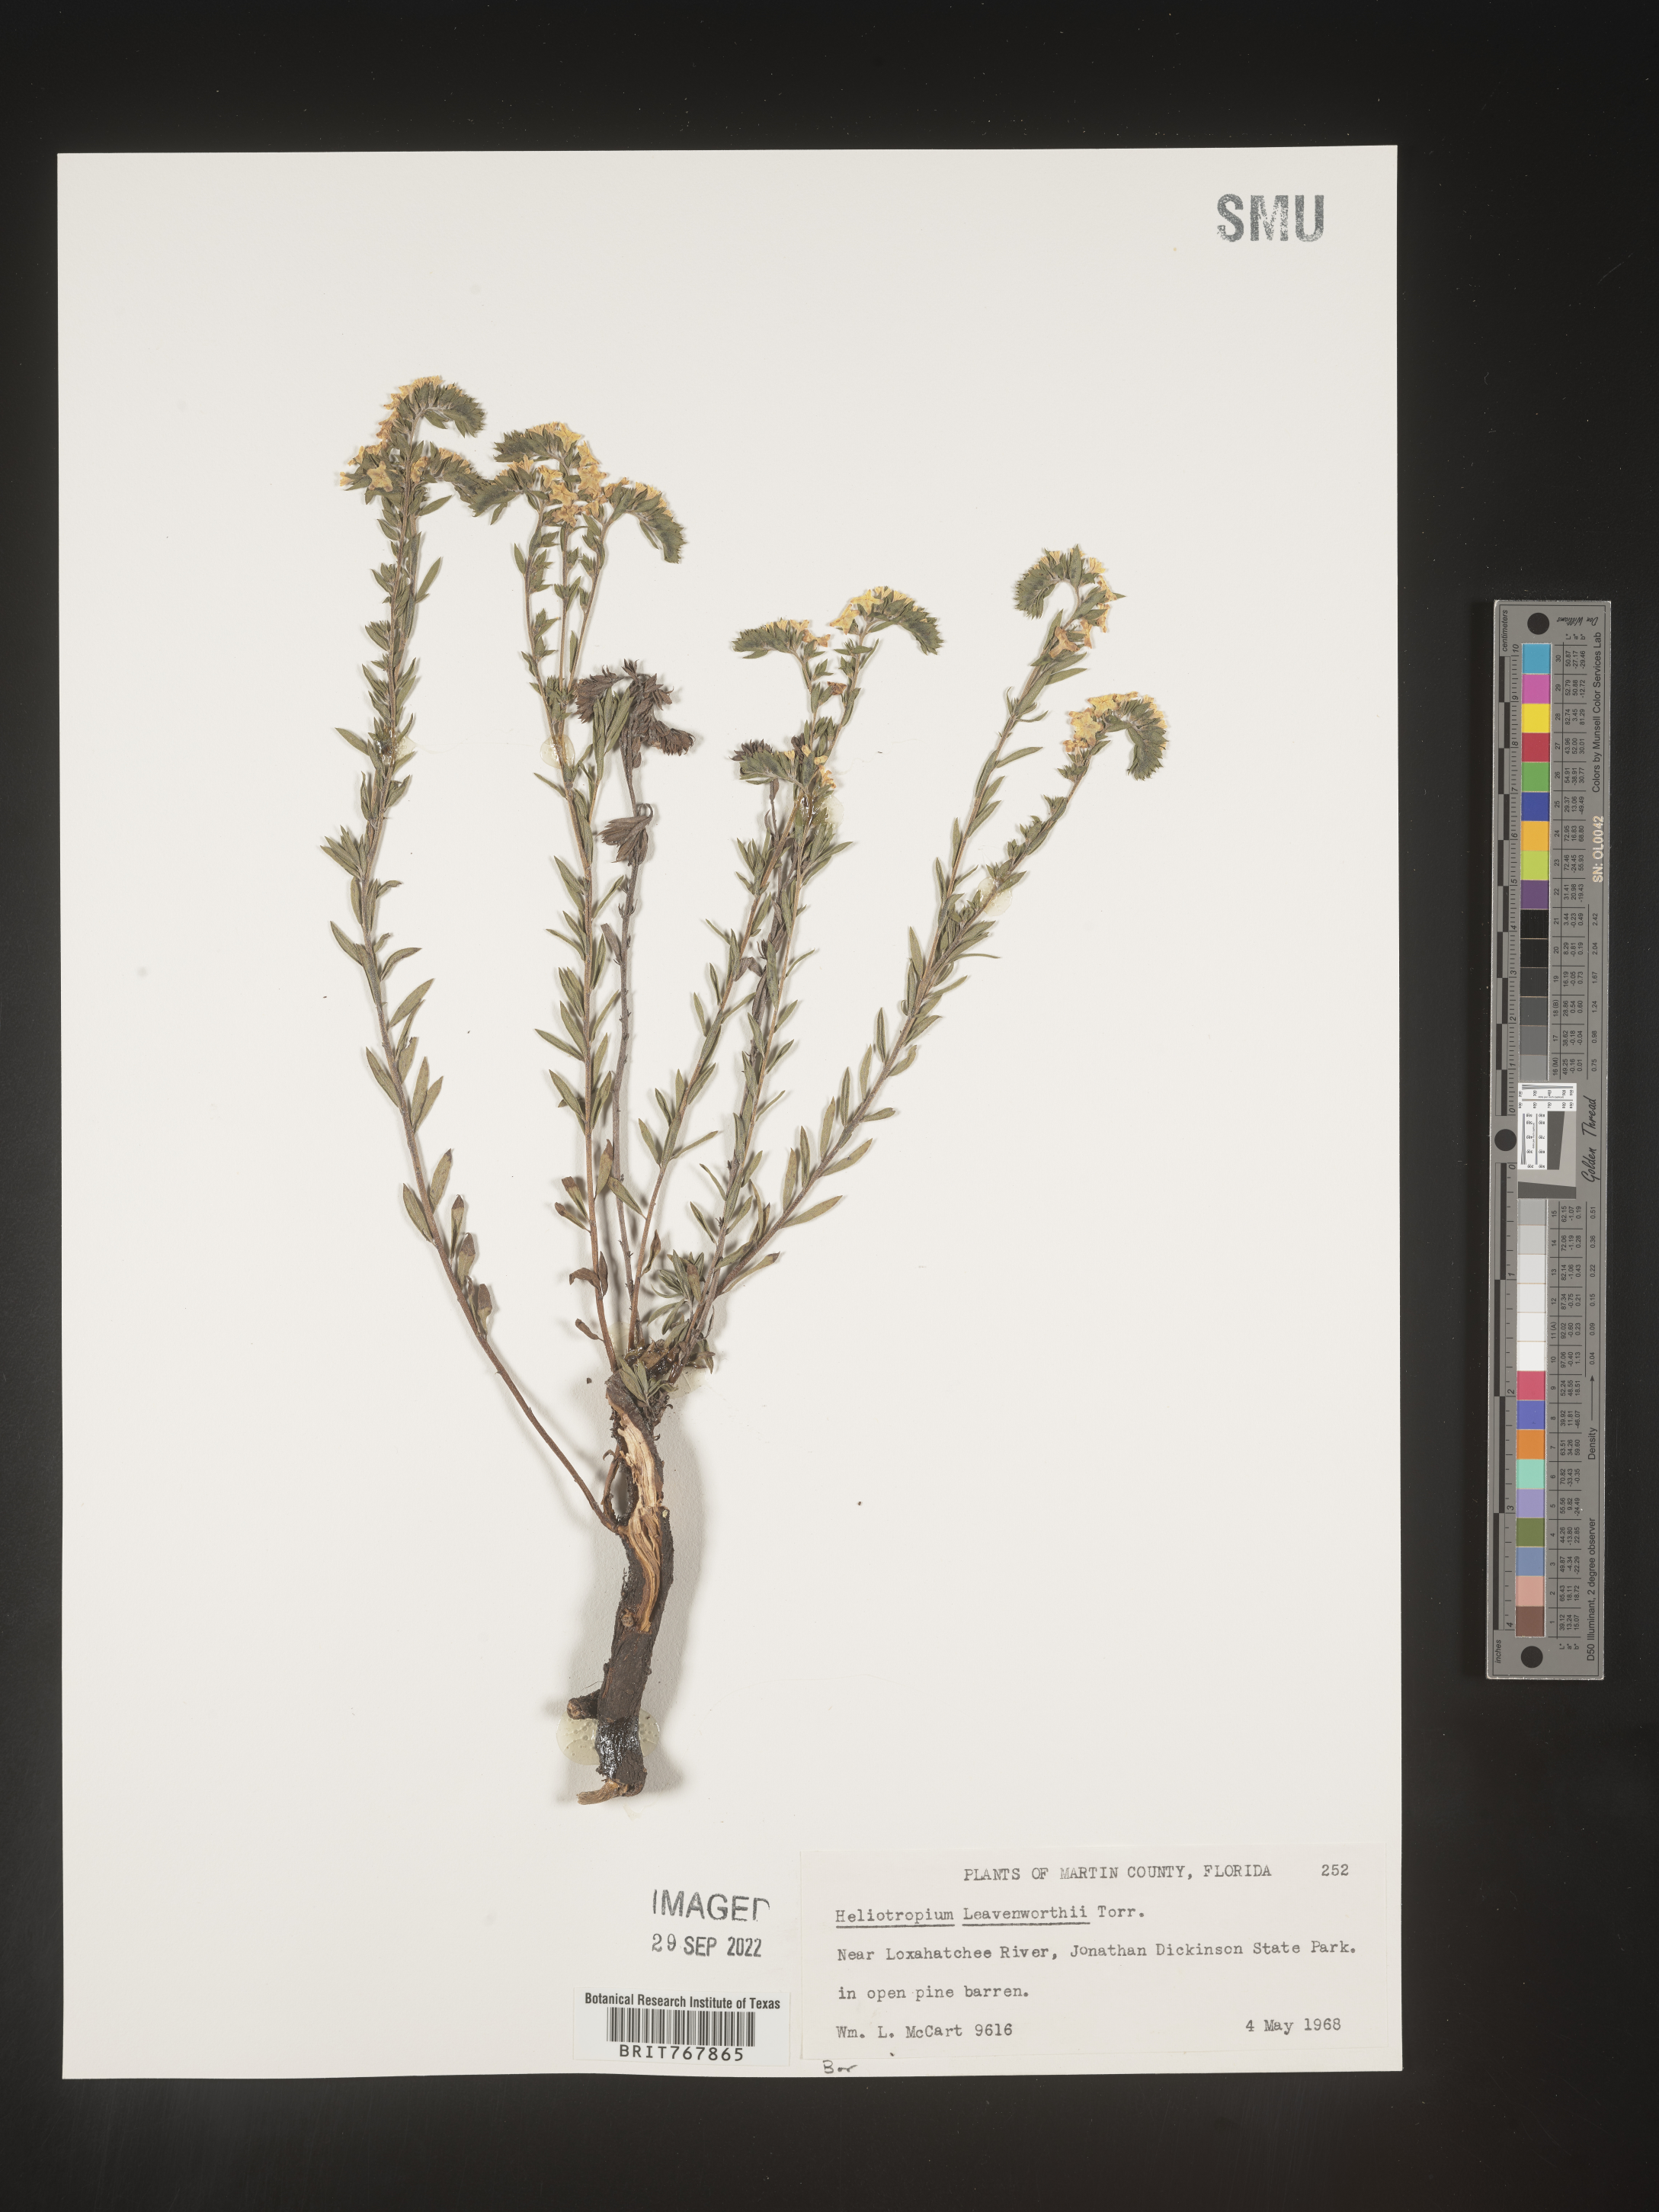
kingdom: Plantae
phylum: Tracheophyta
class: Magnoliopsida
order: Boraginales
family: Heliotropiaceae
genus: Heliotropium
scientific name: Heliotropium leavenworthii
